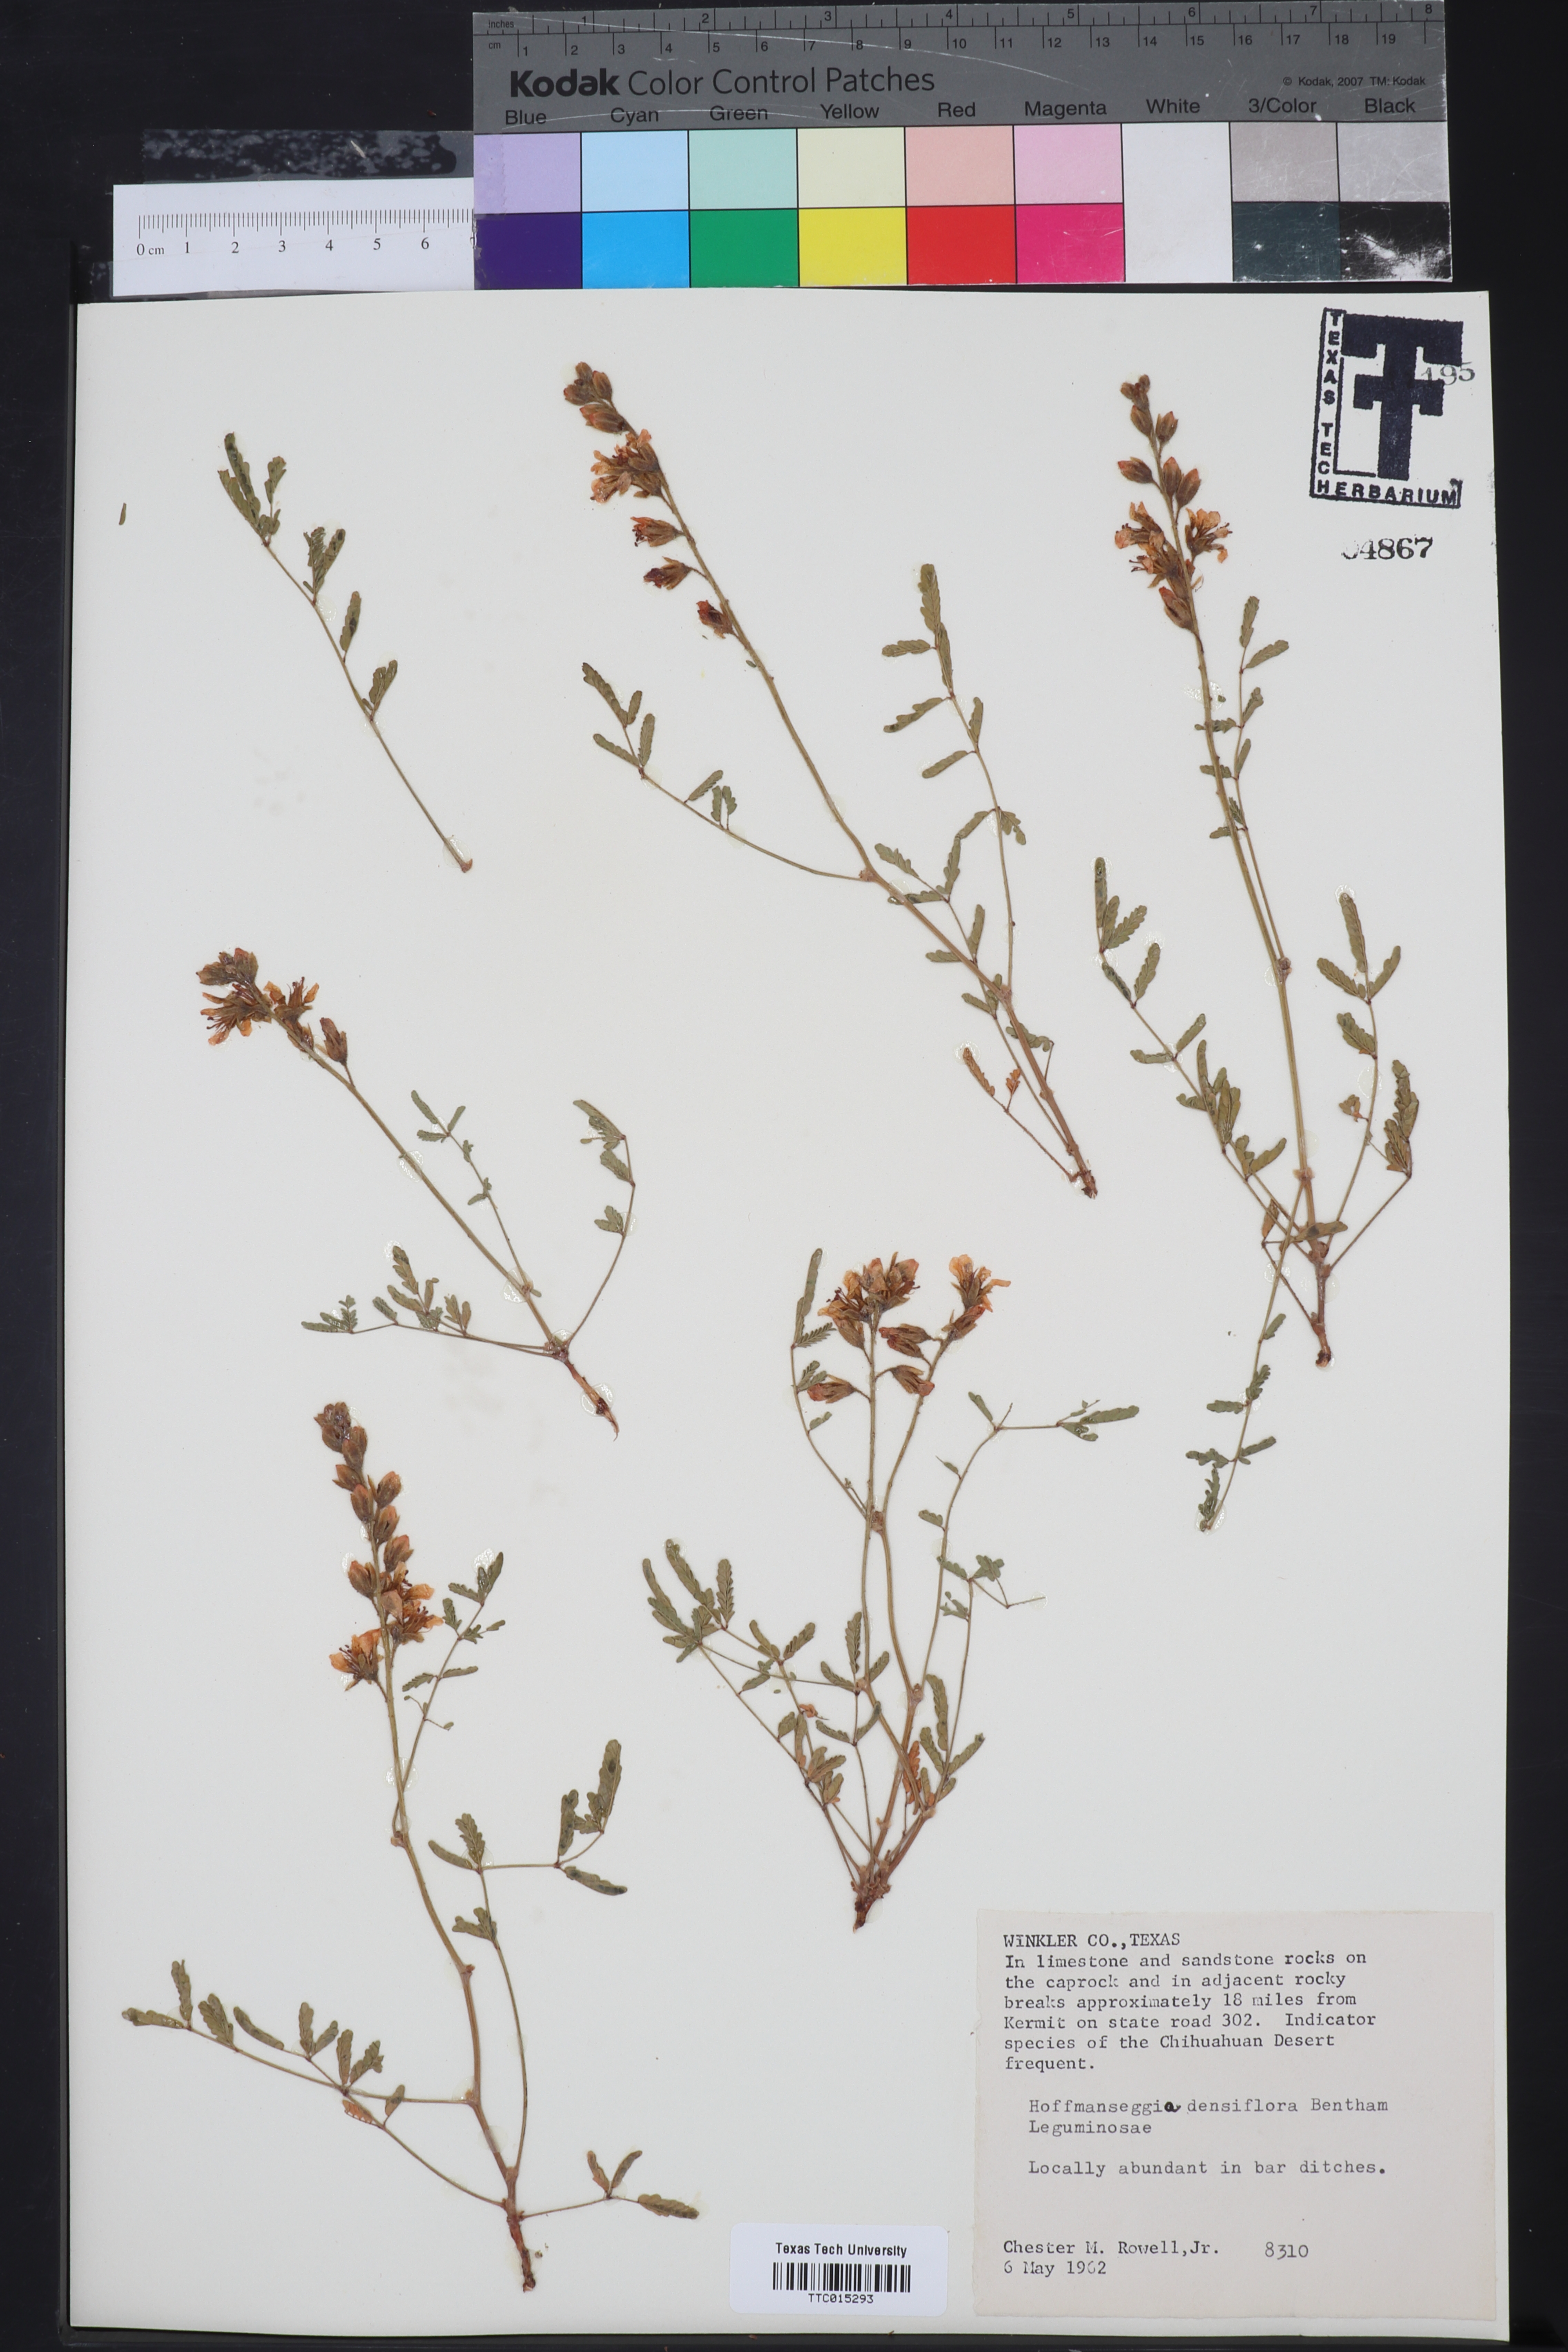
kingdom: Plantae
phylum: Tracheophyta
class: Magnoliopsida
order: Fabales
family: Fabaceae
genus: Hoffmannseggia
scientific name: Hoffmannseggia glauca
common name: Pignut
